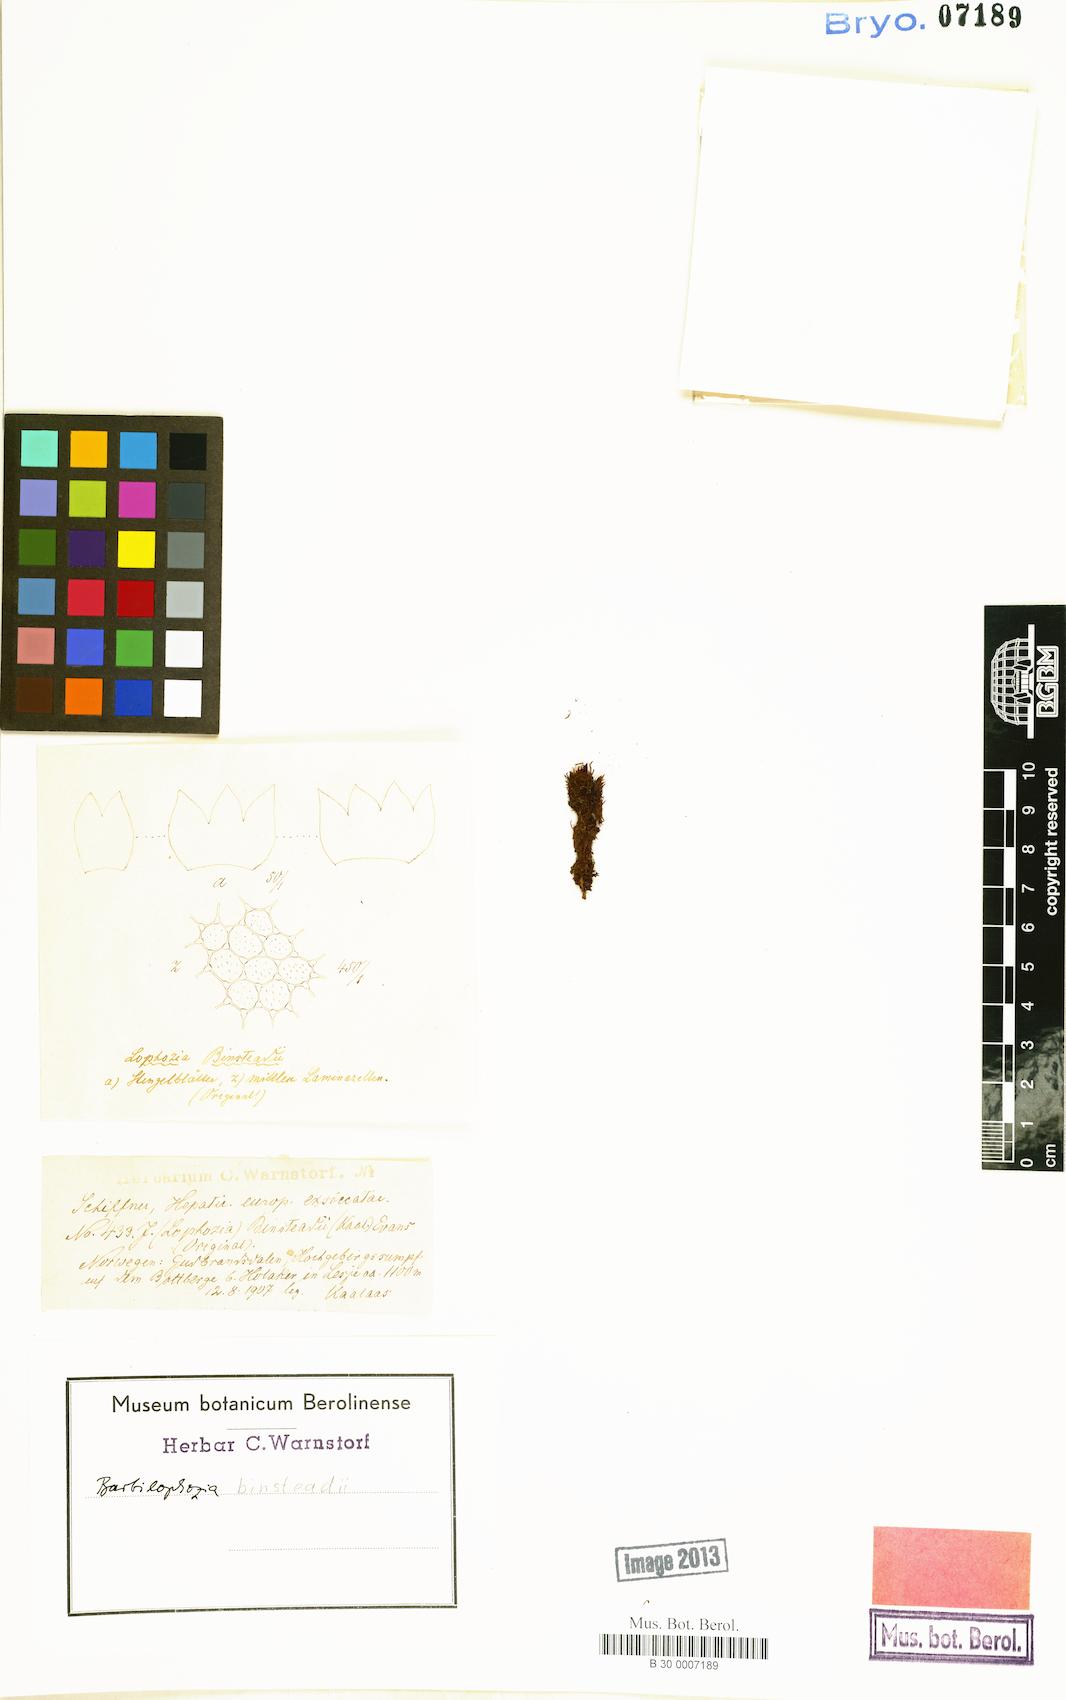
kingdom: Plantae
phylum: Marchantiophyta
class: Jungermanniopsida
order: Jungermanniales
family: Anastrophyllaceae
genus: Neoorthocaulis
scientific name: Neoorthocaulis binsteadii
